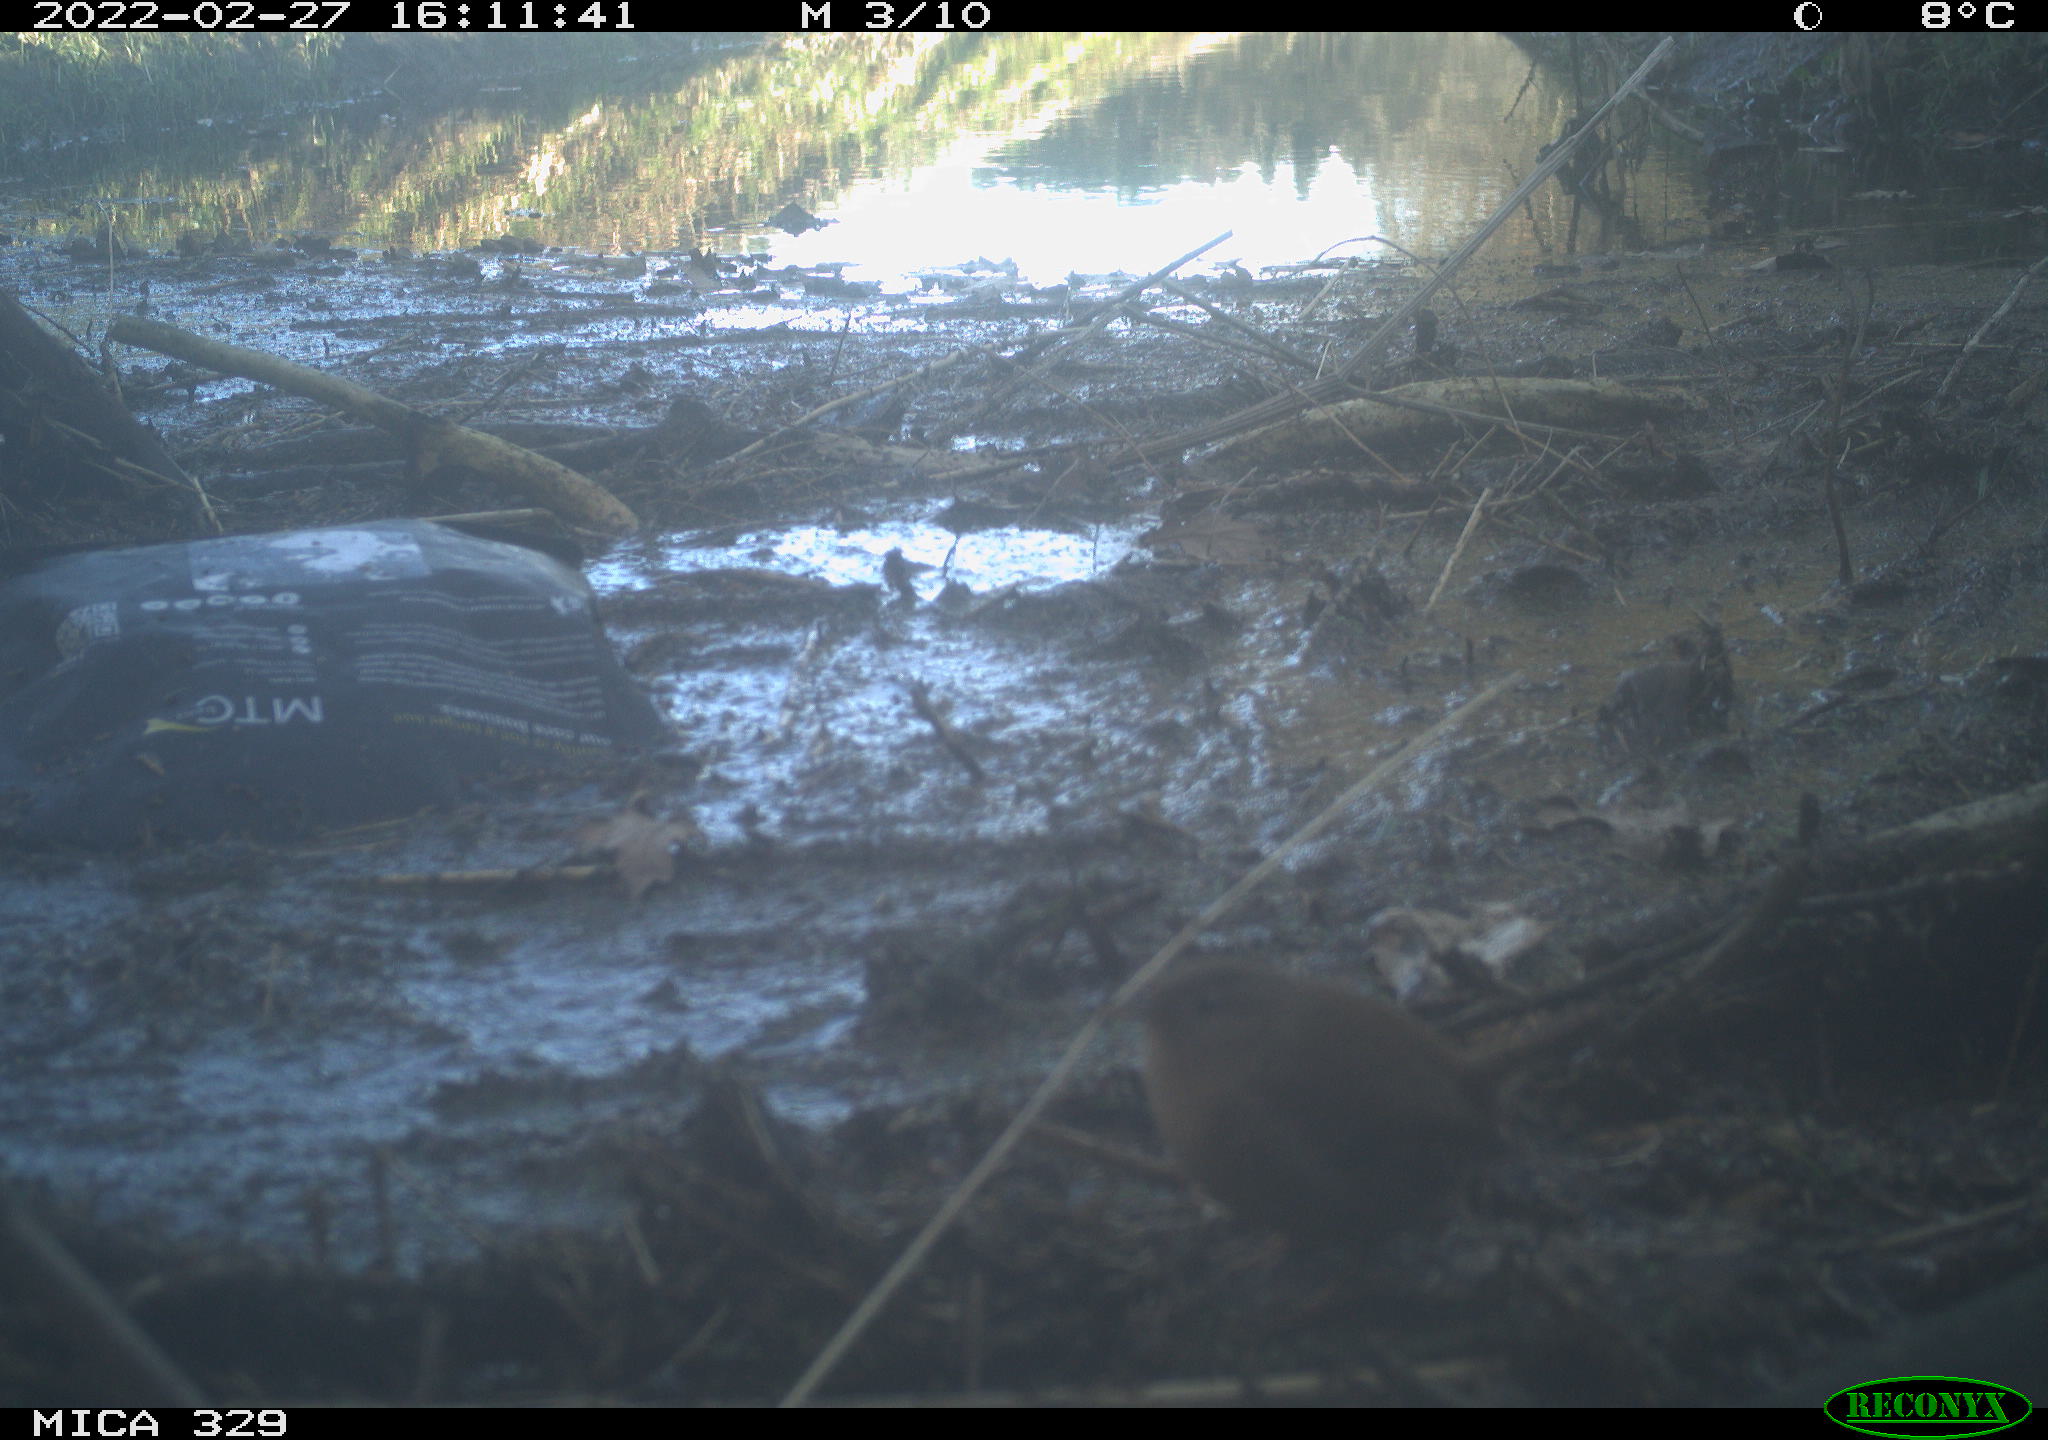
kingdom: Animalia
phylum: Chordata
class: Aves
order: Passeriformes
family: Troglodytidae
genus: Troglodytes
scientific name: Troglodytes troglodytes
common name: Eurasian wren
